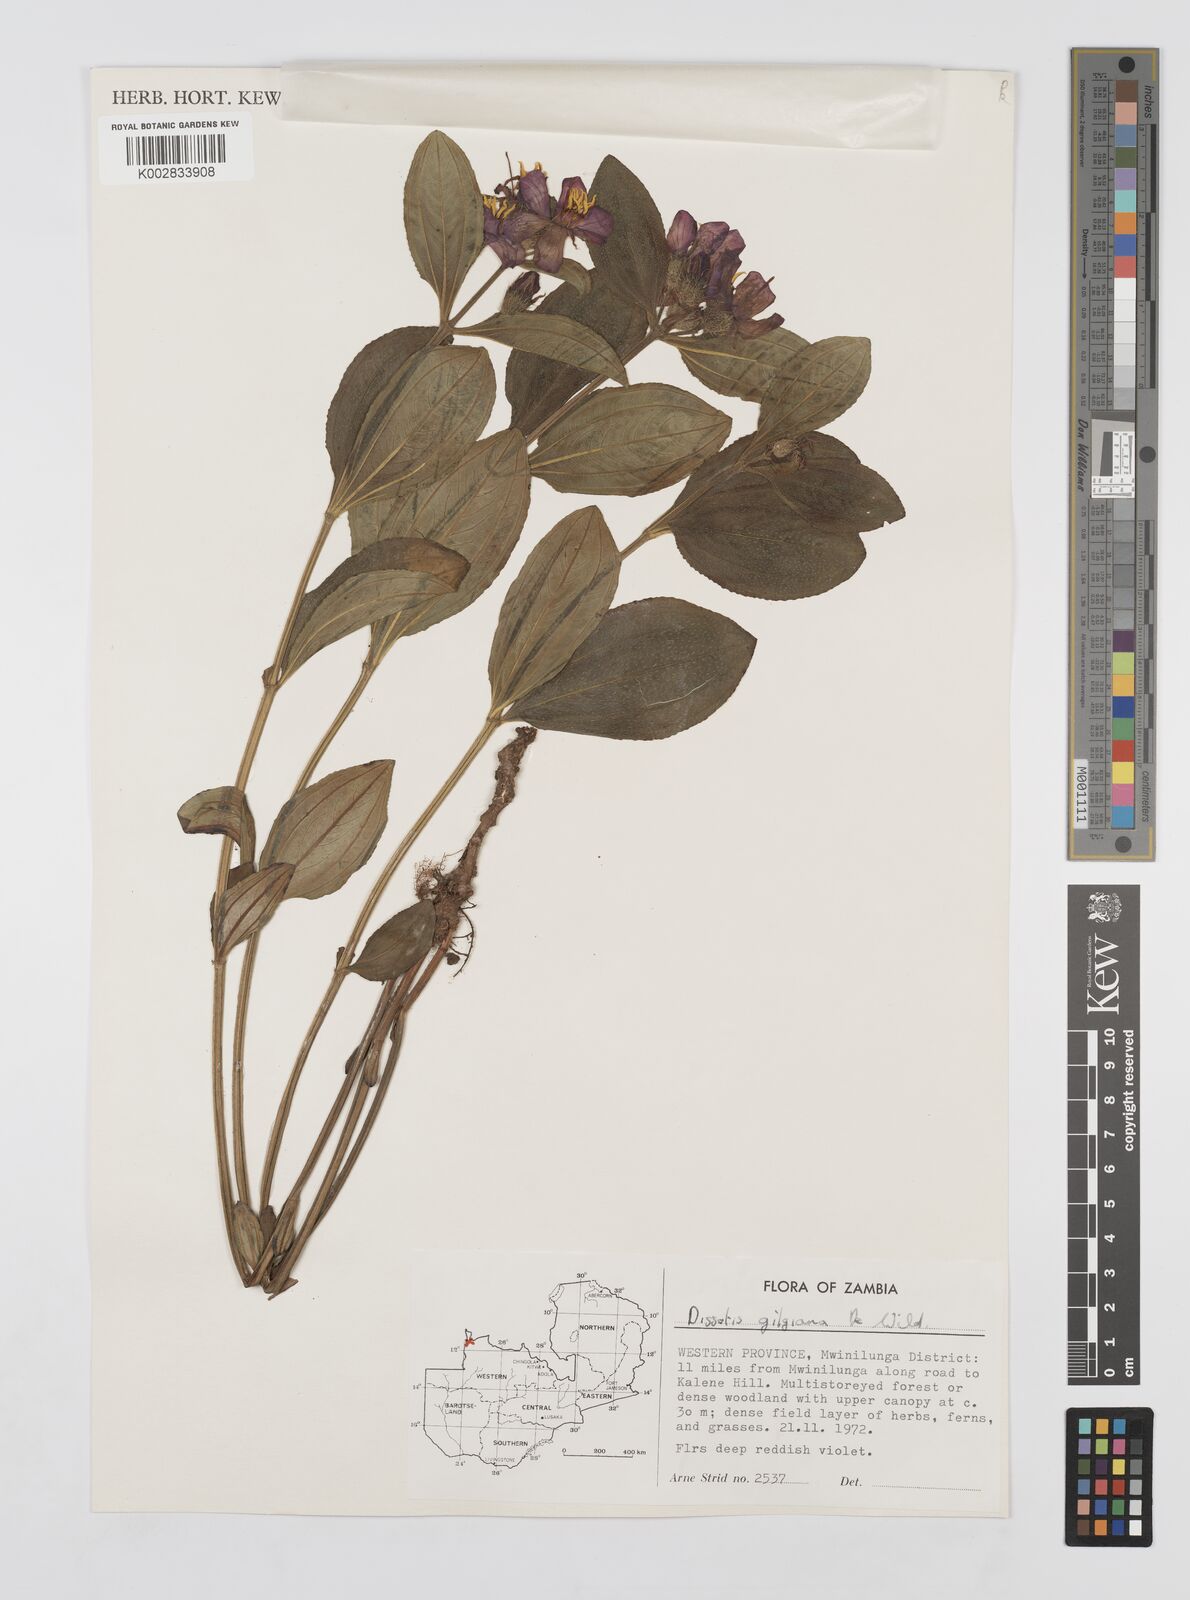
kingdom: Plantae
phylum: Tracheophyta
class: Magnoliopsida
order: Myrtales
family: Melastomataceae
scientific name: Melastomataceae
